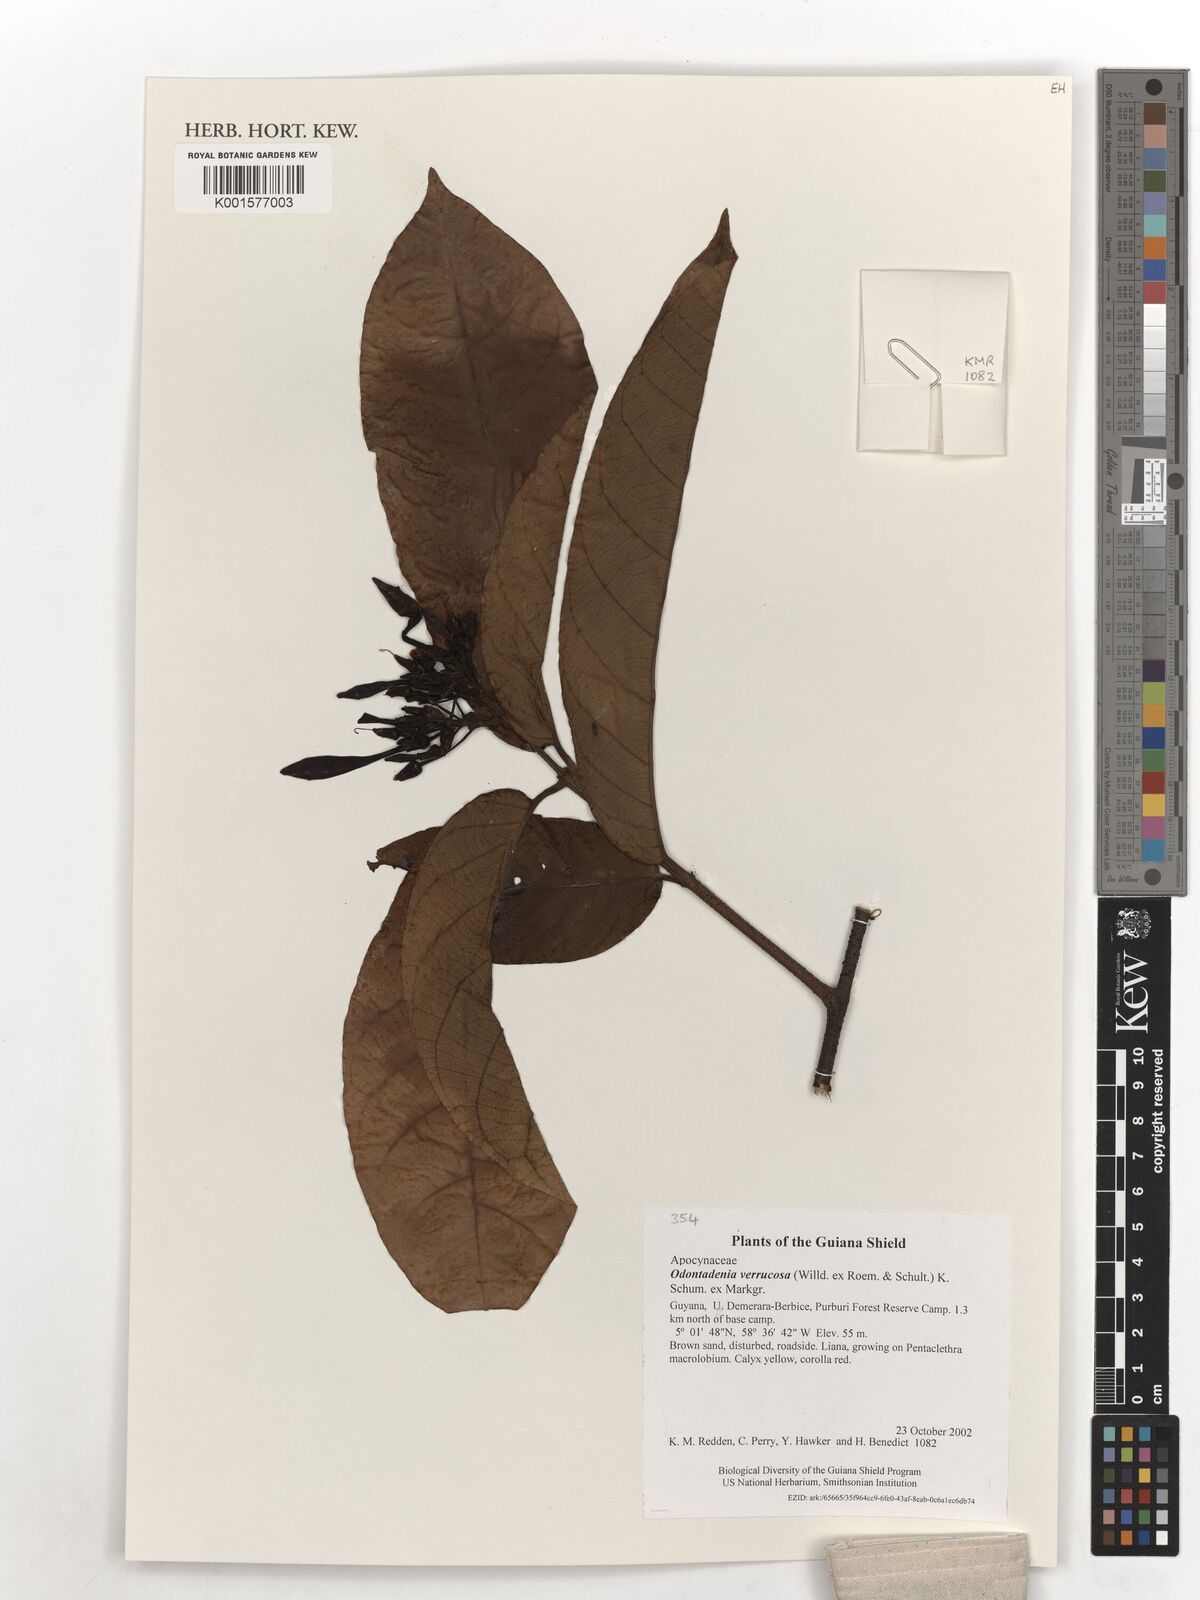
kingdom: Plantae
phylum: Tracheophyta
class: Magnoliopsida
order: Gentianales
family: Apocynaceae
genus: Odontadenia
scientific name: Odontadenia verrucosa
